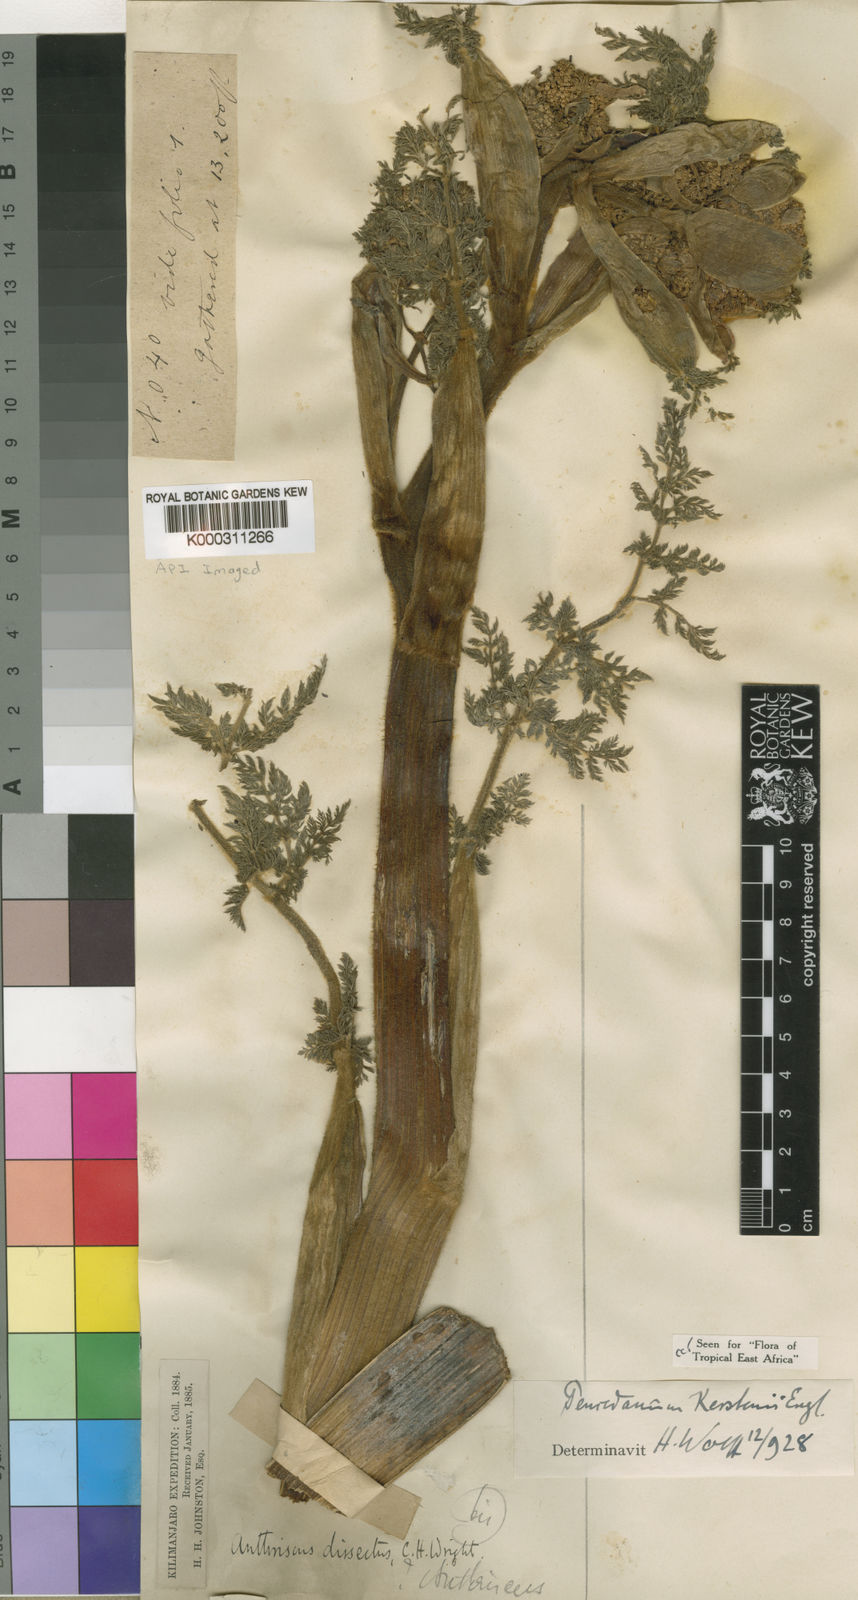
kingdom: Plantae
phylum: Tracheophyta
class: Magnoliopsida
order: Apiales
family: Apiaceae
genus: Afrosciadium
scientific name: Afrosciadium kerstenii
